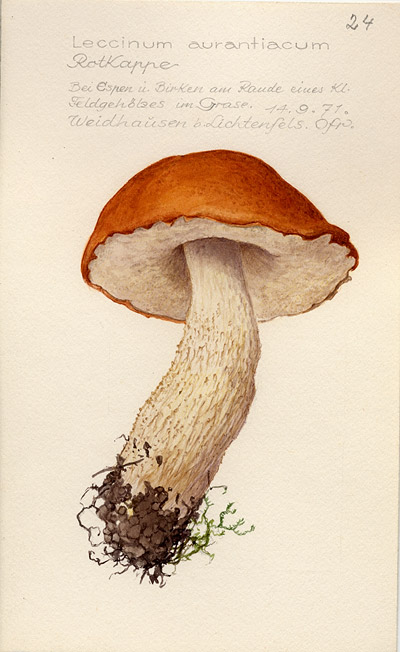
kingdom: Fungi
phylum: Basidiomycota
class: Agaricomycetes
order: Boletales
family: Boletaceae
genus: Leccinum
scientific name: Leccinum aurantiacum
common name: Orange bolete
